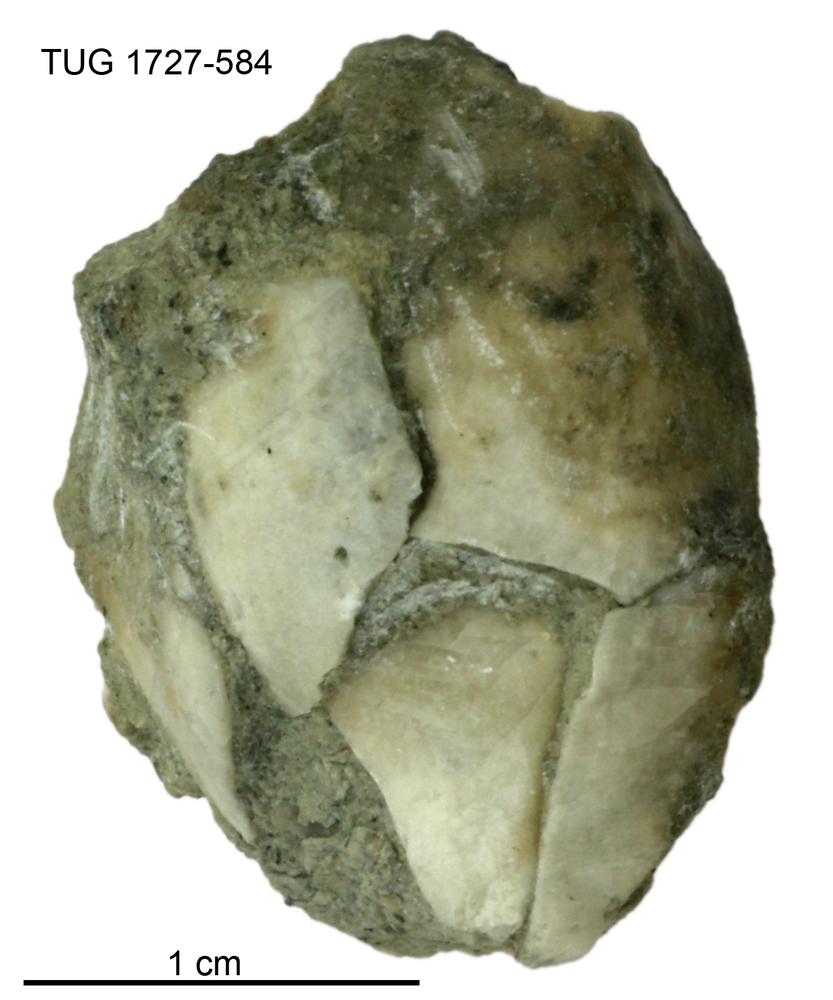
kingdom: Animalia
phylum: Echinodermata
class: Crinoidea
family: Hybocrinidae
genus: Hoplocrinus
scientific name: Hoplocrinus
